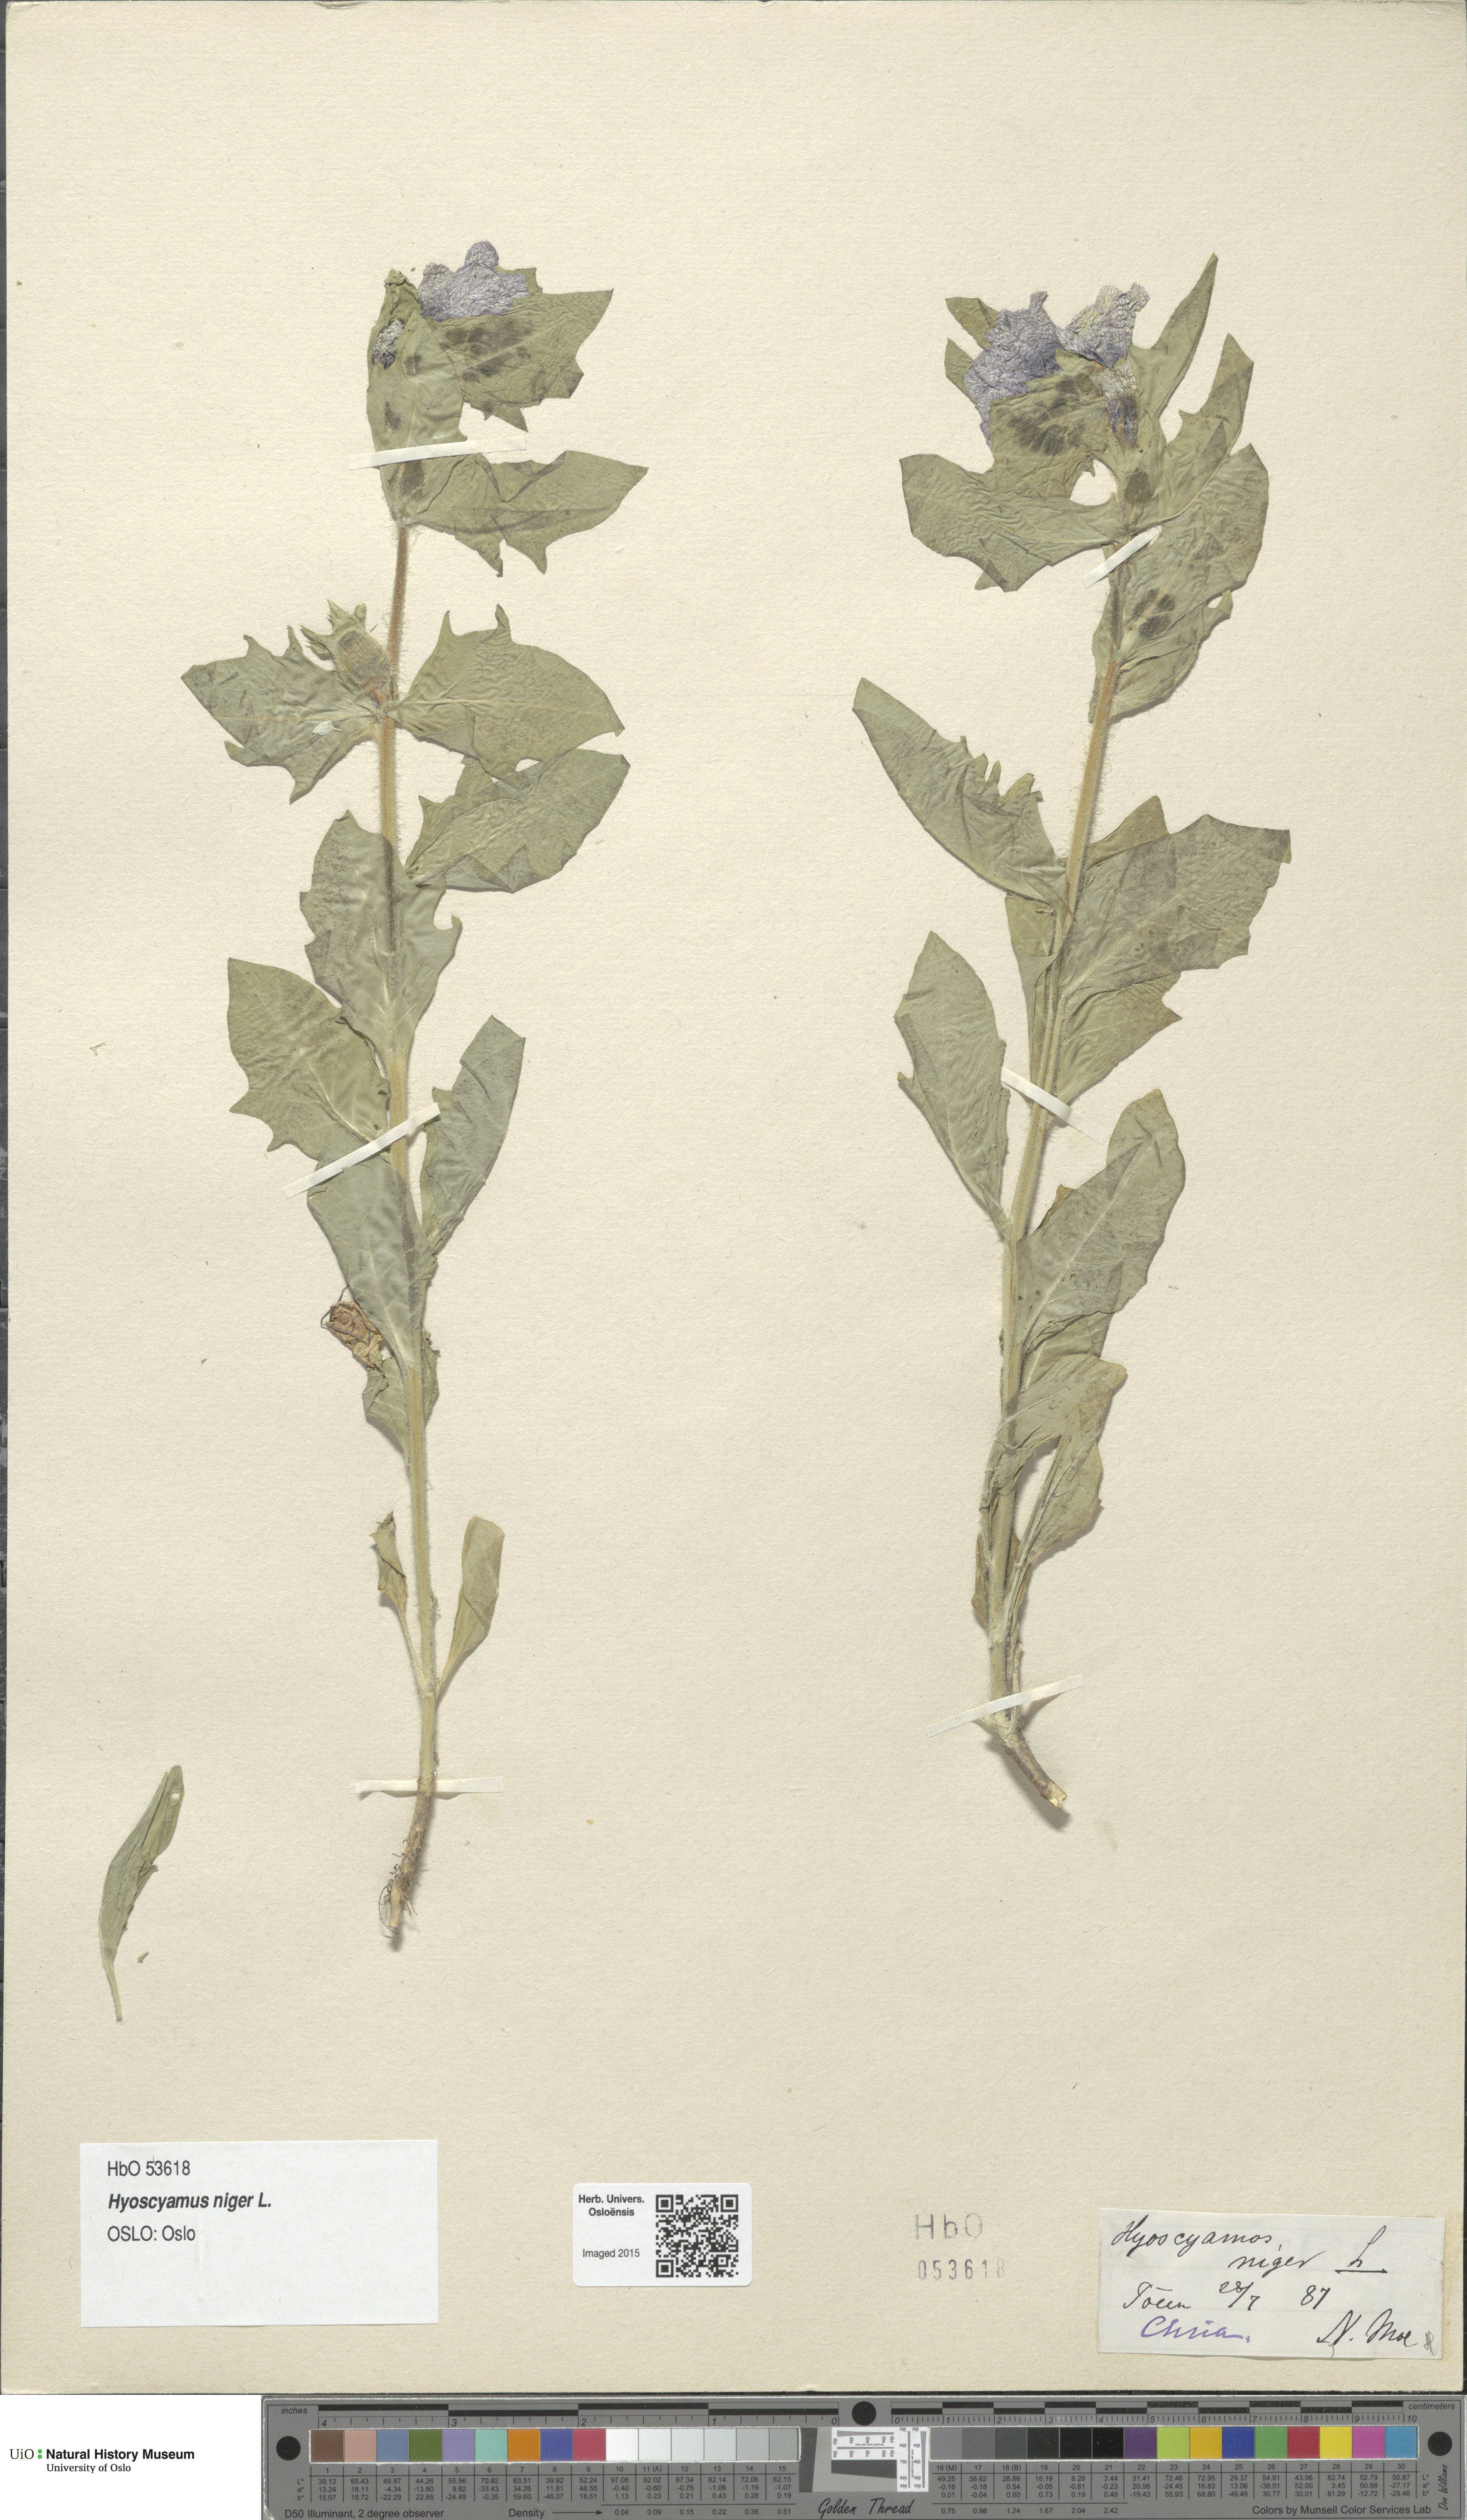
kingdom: Plantae
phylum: Tracheophyta
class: Magnoliopsida
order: Solanales
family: Solanaceae
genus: Hyoscyamus
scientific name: Hyoscyamus niger
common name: Henbane
